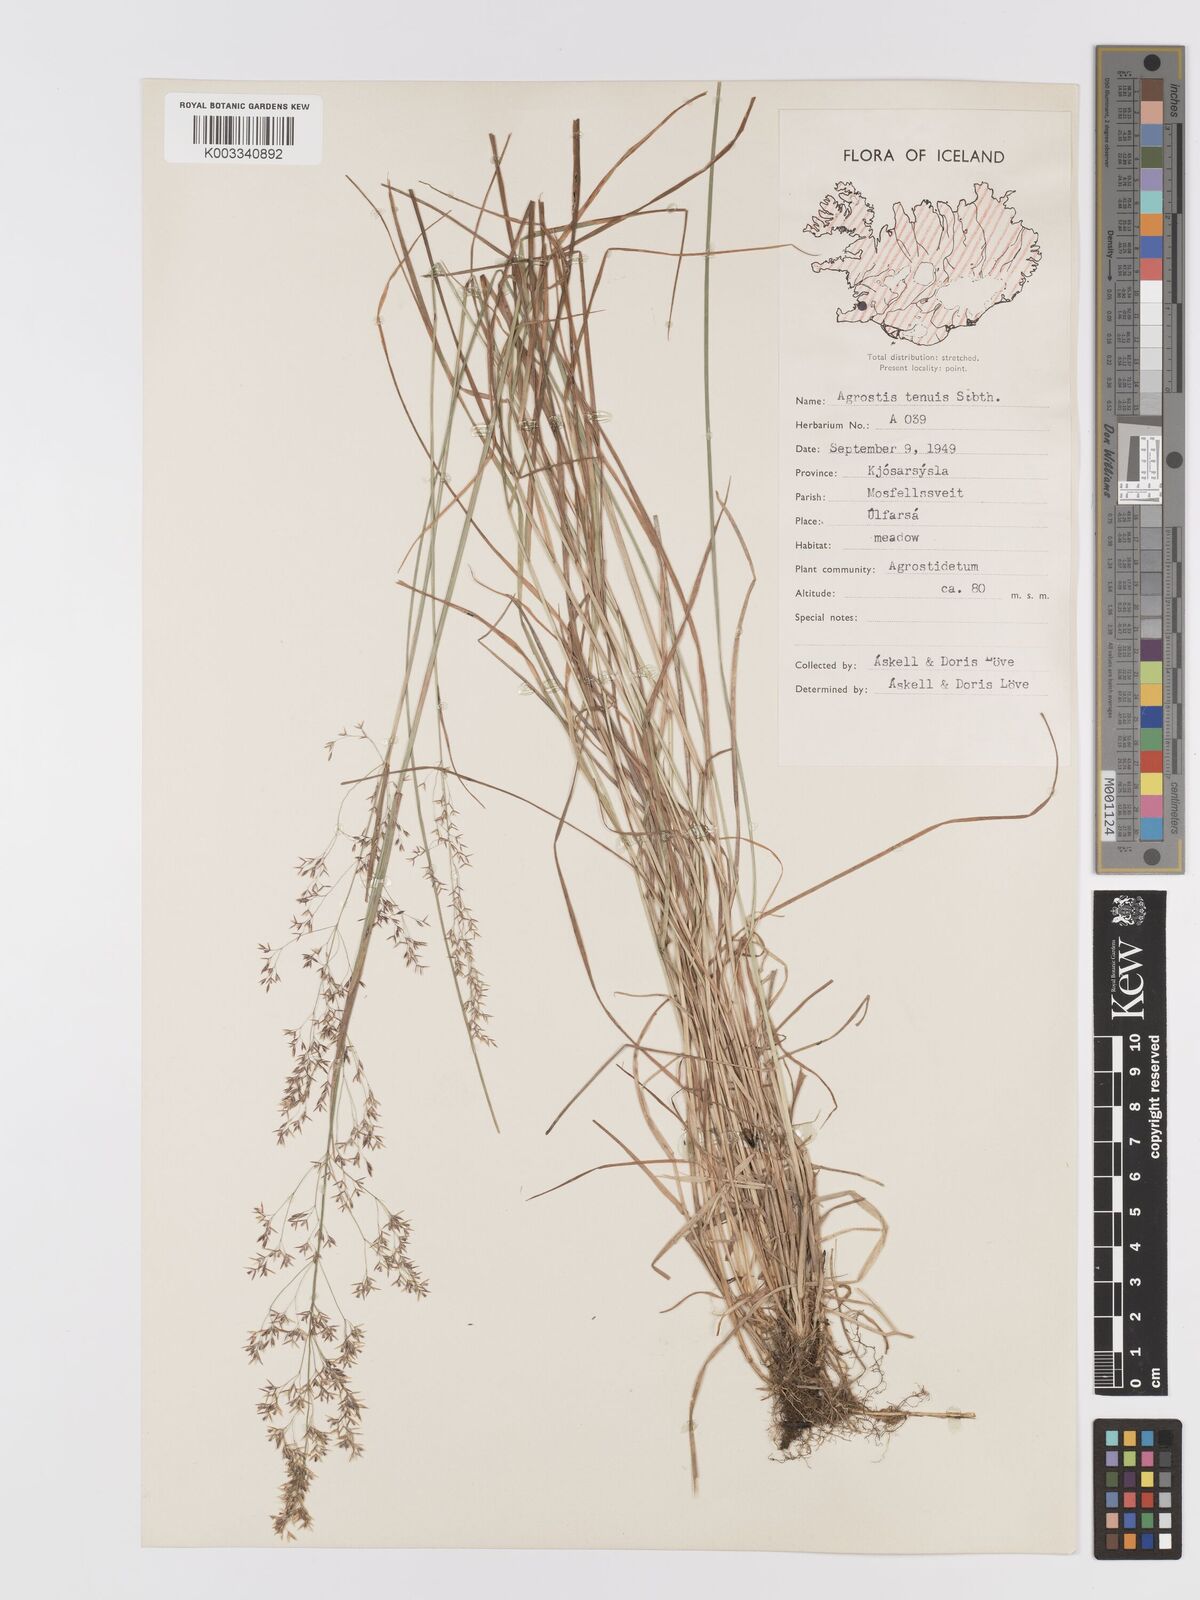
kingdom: Plantae
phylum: Tracheophyta
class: Liliopsida
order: Poales
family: Poaceae
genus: Agrostis
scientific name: Agrostis capillaris
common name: Colonial bentgrass
